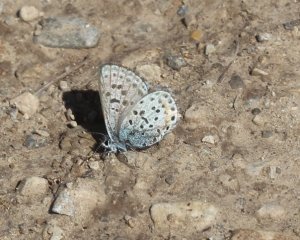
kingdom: Animalia
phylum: Arthropoda
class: Insecta
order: Lepidoptera
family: Lycaenidae
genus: Euphilotes
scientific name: Euphilotes enoptes
